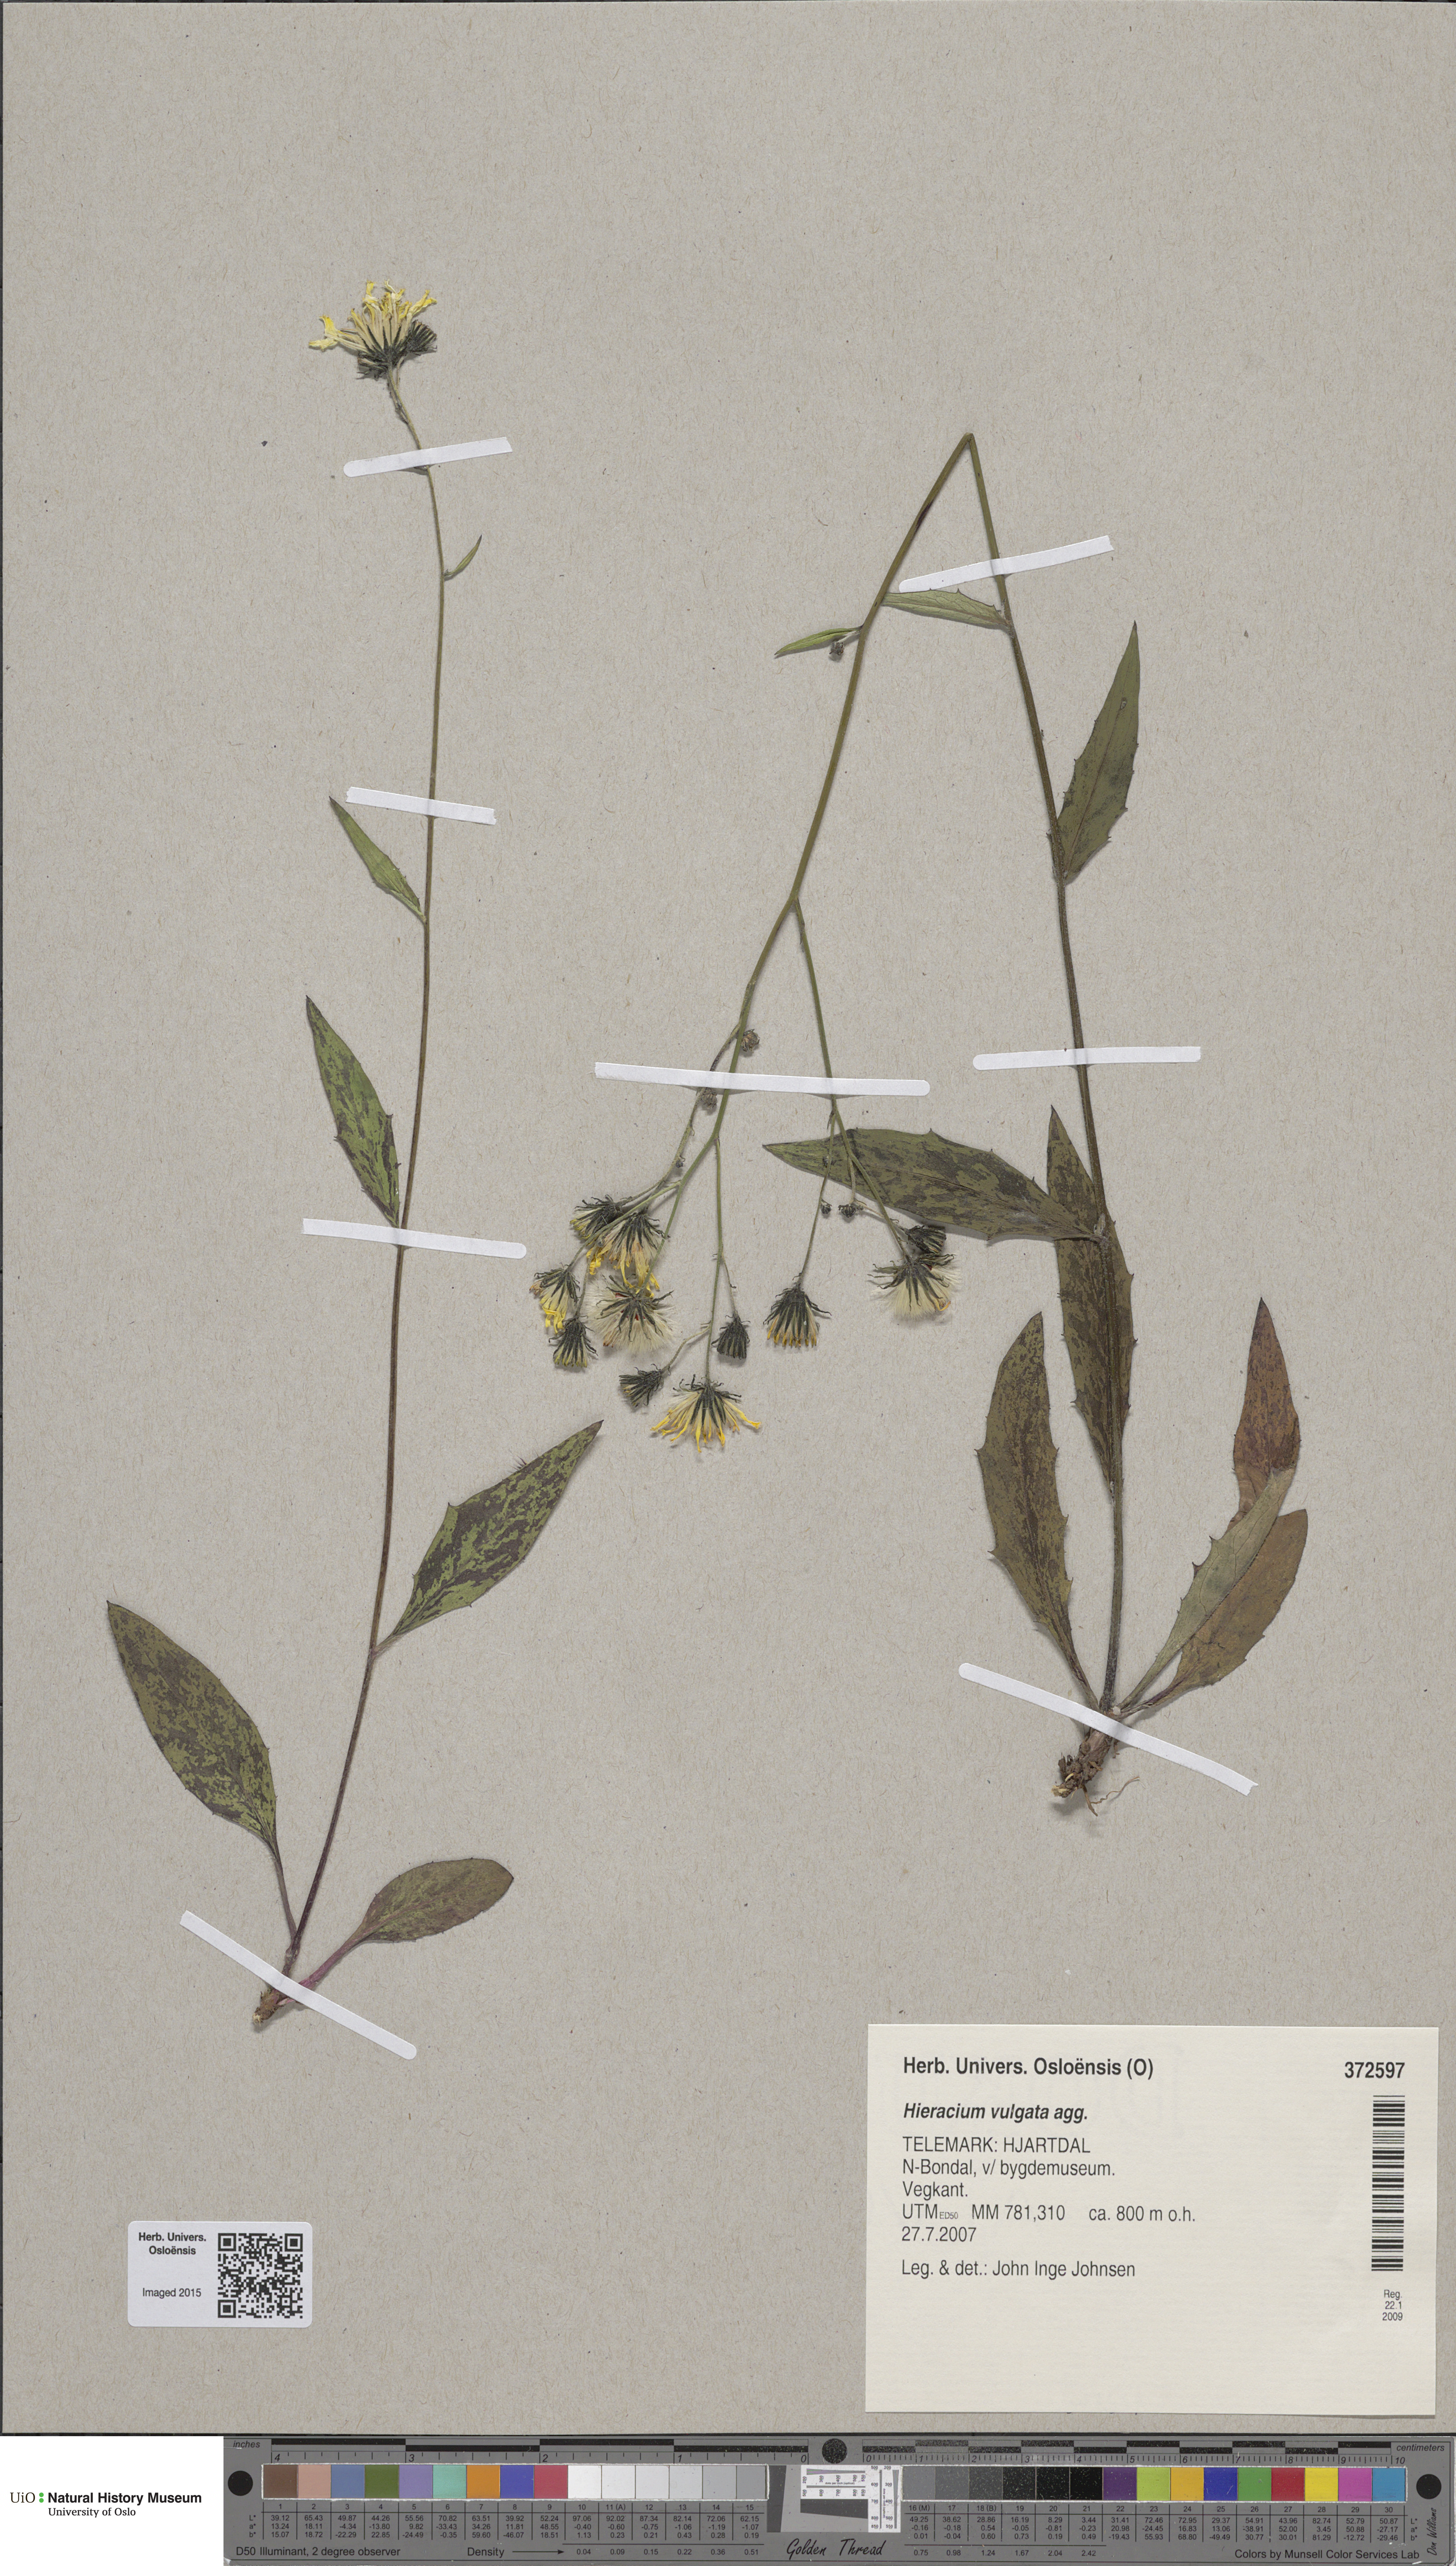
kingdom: Plantae
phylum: Tracheophyta
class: Magnoliopsida
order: Asterales
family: Asteraceae
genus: Hieracium
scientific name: Hieracium vulgatum
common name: Common hawkweed
